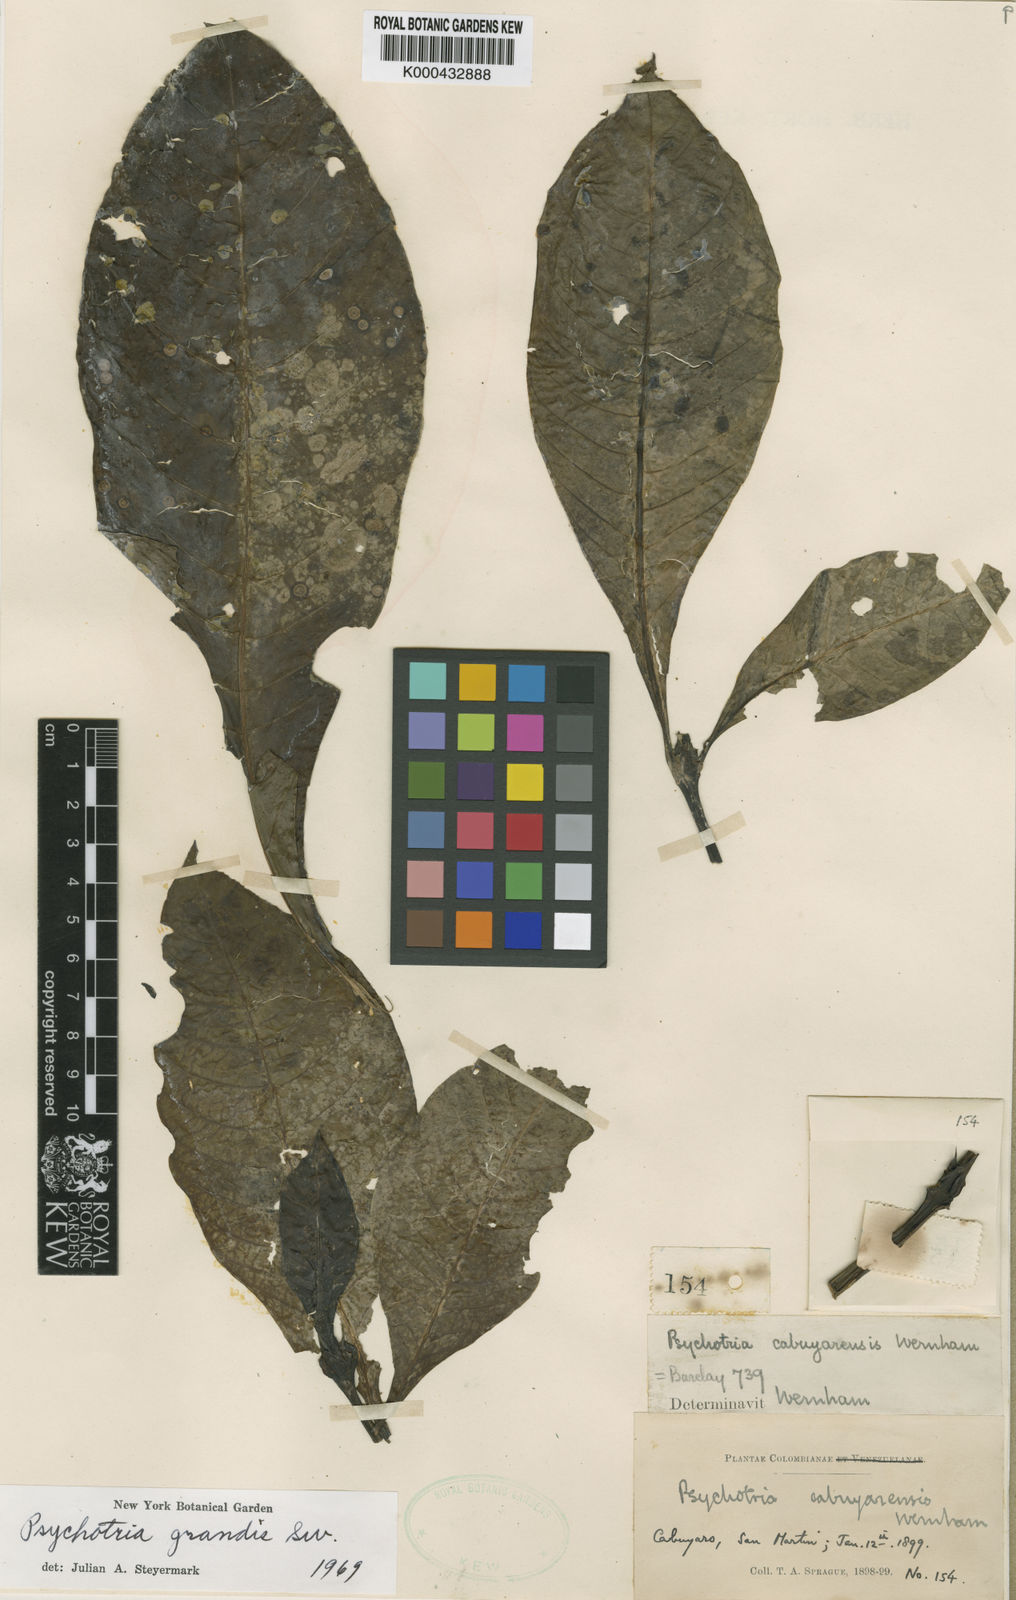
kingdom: Plantae
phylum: Tracheophyta
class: Magnoliopsida
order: Gentianales
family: Rubiaceae
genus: Psychotria
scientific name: Psychotria grandis
